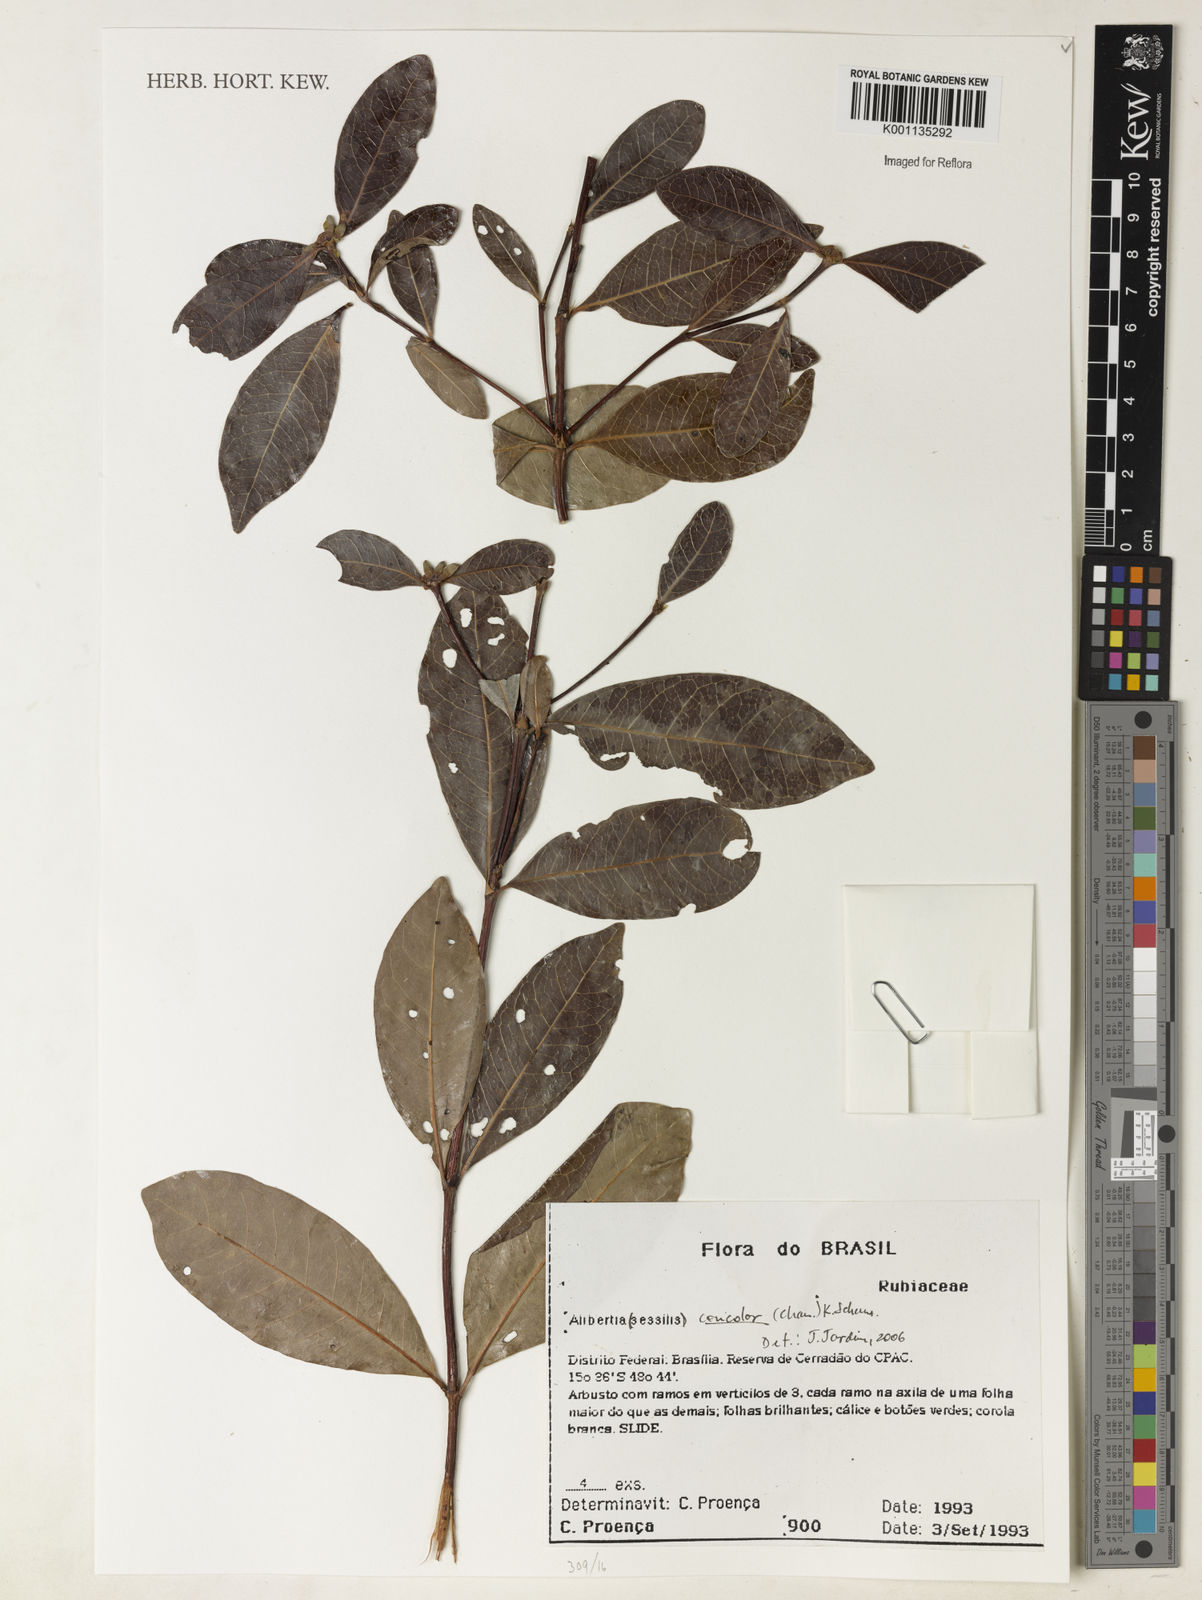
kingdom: Plantae
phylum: Tracheophyta
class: Magnoliopsida
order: Gentianales
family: Rubiaceae
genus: Cordiera
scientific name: Cordiera concolor
